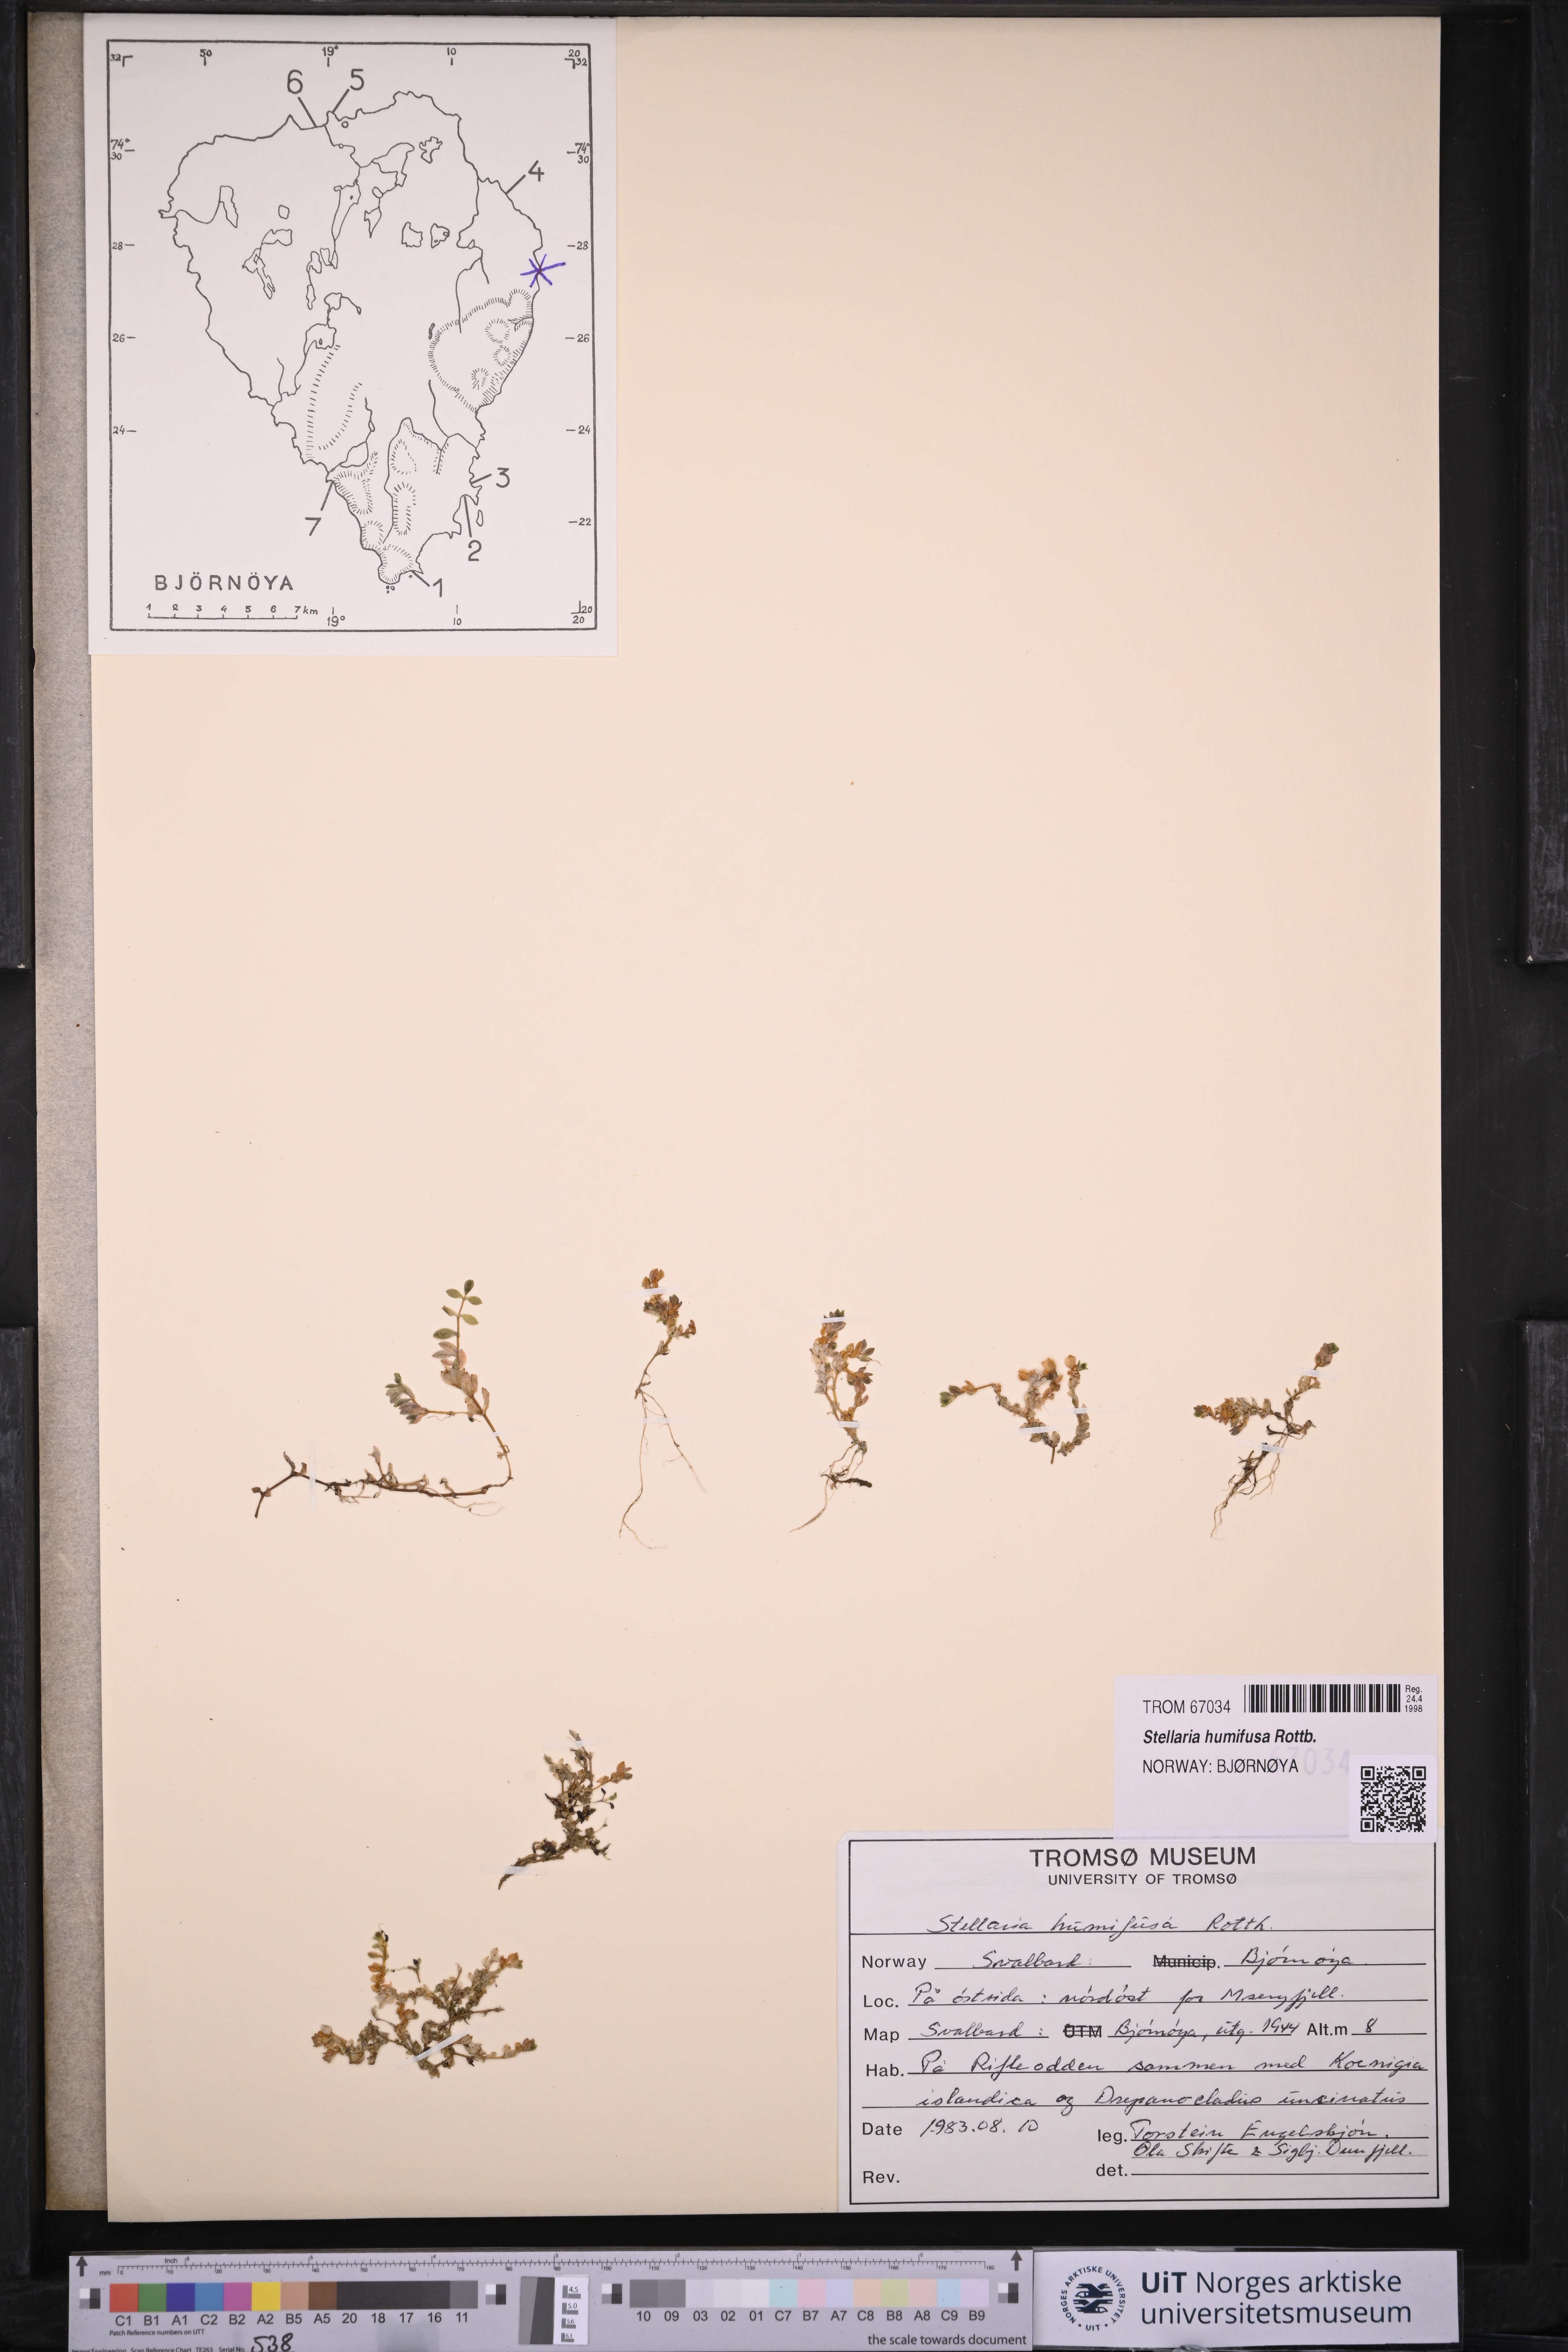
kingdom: Plantae
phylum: Tracheophyta
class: Magnoliopsida
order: Caryophyllales
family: Caryophyllaceae
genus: Stellaria
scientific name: Stellaria humifusa
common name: Creeping starwort
